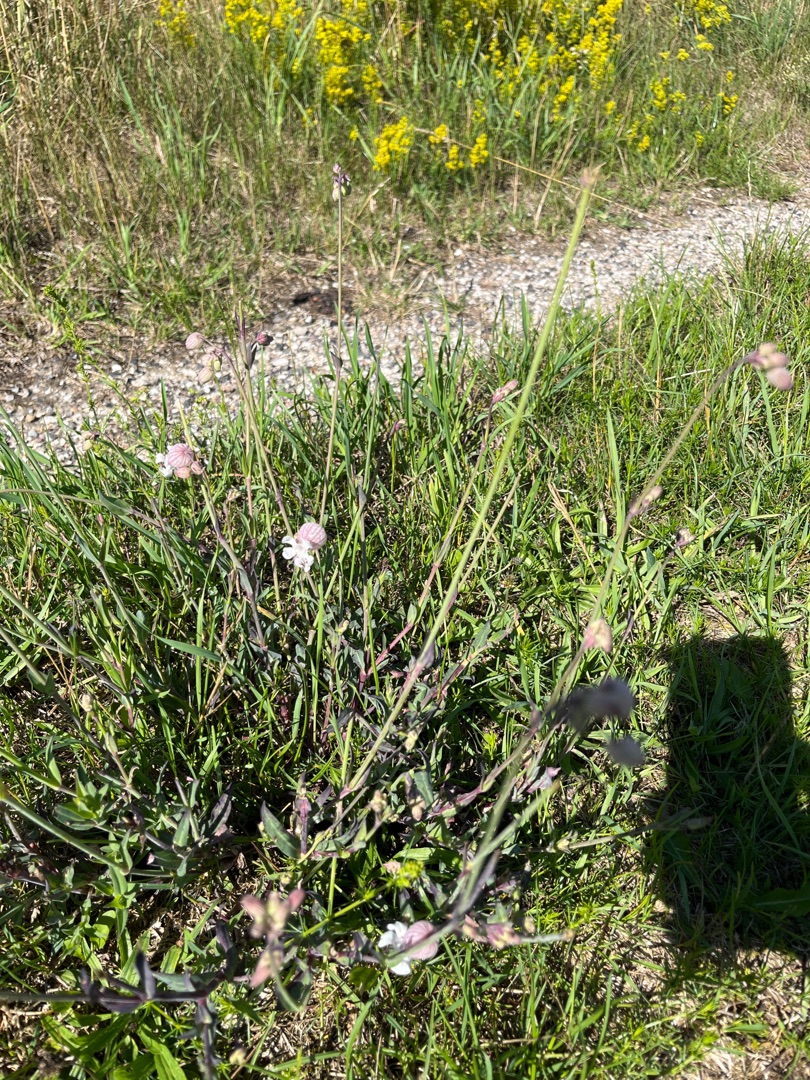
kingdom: Plantae
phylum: Tracheophyta
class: Magnoliopsida
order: Caryophyllales
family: Caryophyllaceae
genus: Silene
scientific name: Silene vulgaris
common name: Blæresmælde
